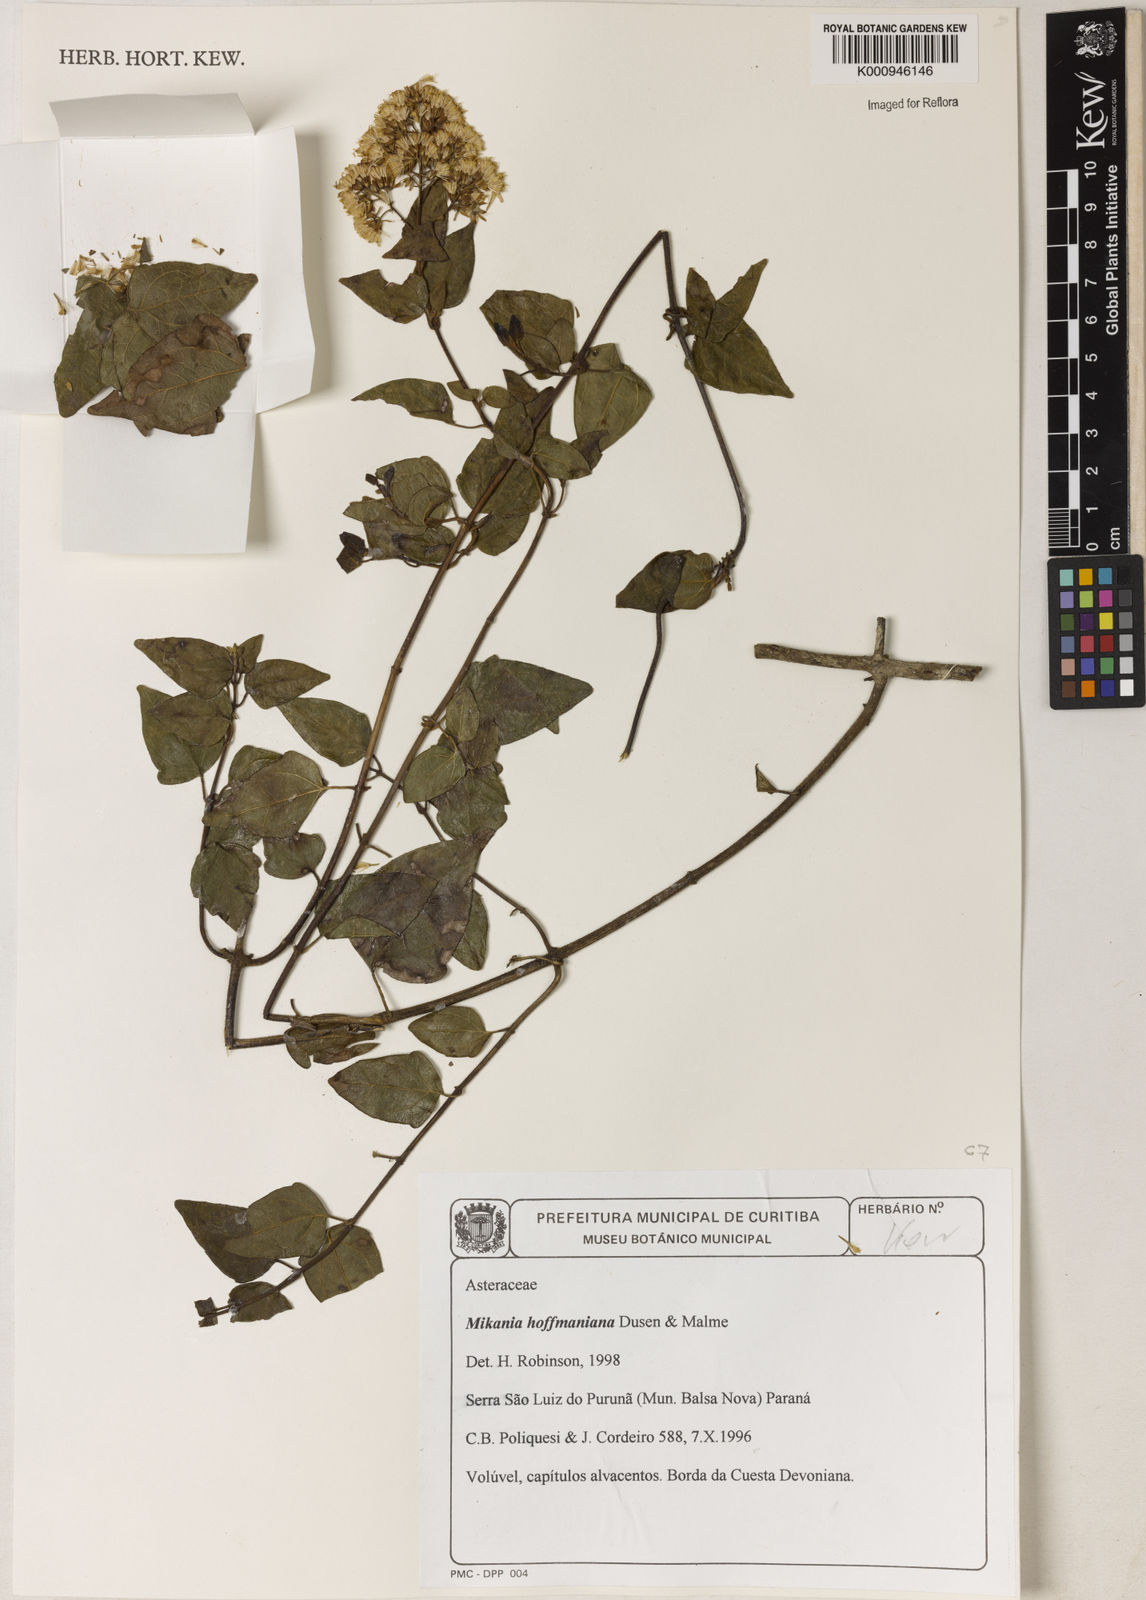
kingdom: Plantae
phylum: Tracheophyta
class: Magnoliopsida
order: Asterales
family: Asteraceae
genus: Mikania
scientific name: Mikania
